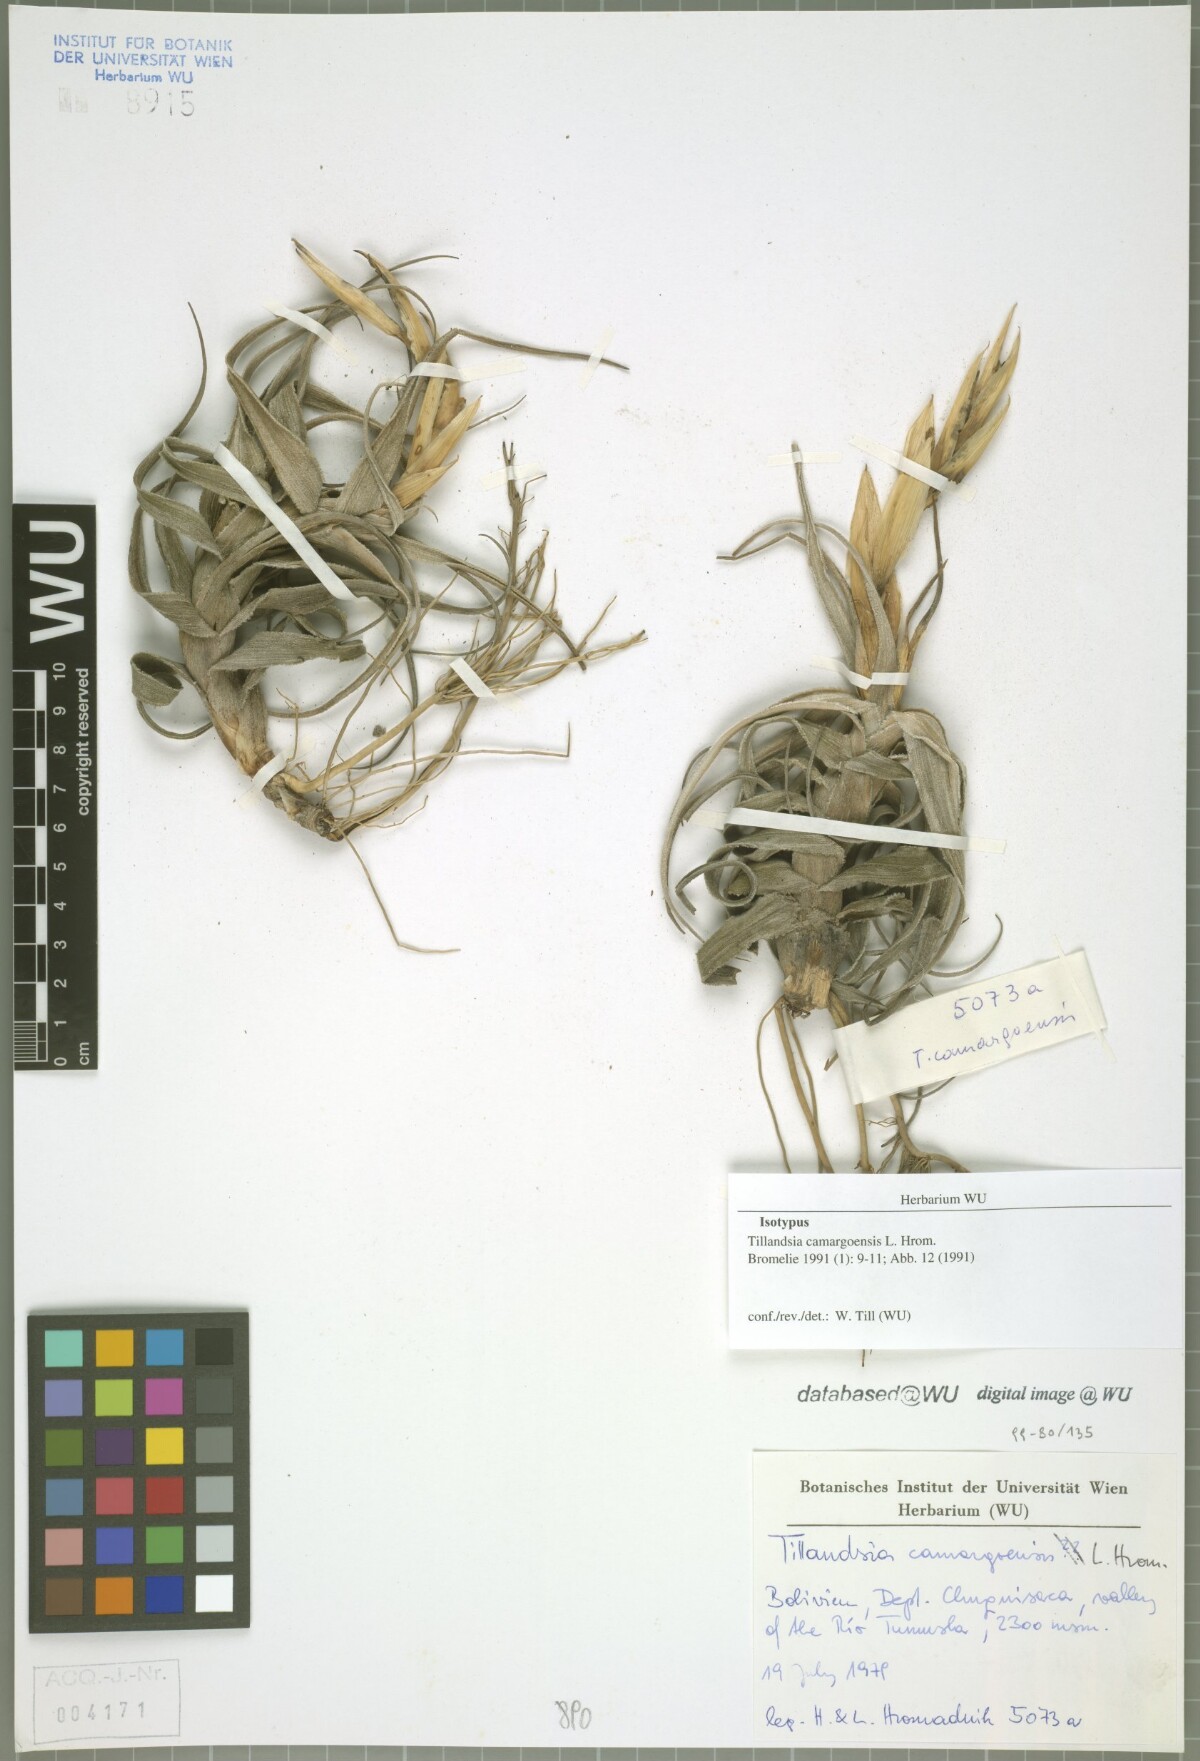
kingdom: Plantae
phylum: Tracheophyta
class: Liliopsida
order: Poales
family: Bromeliaceae
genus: Tillandsia
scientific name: Tillandsia camargoensis
